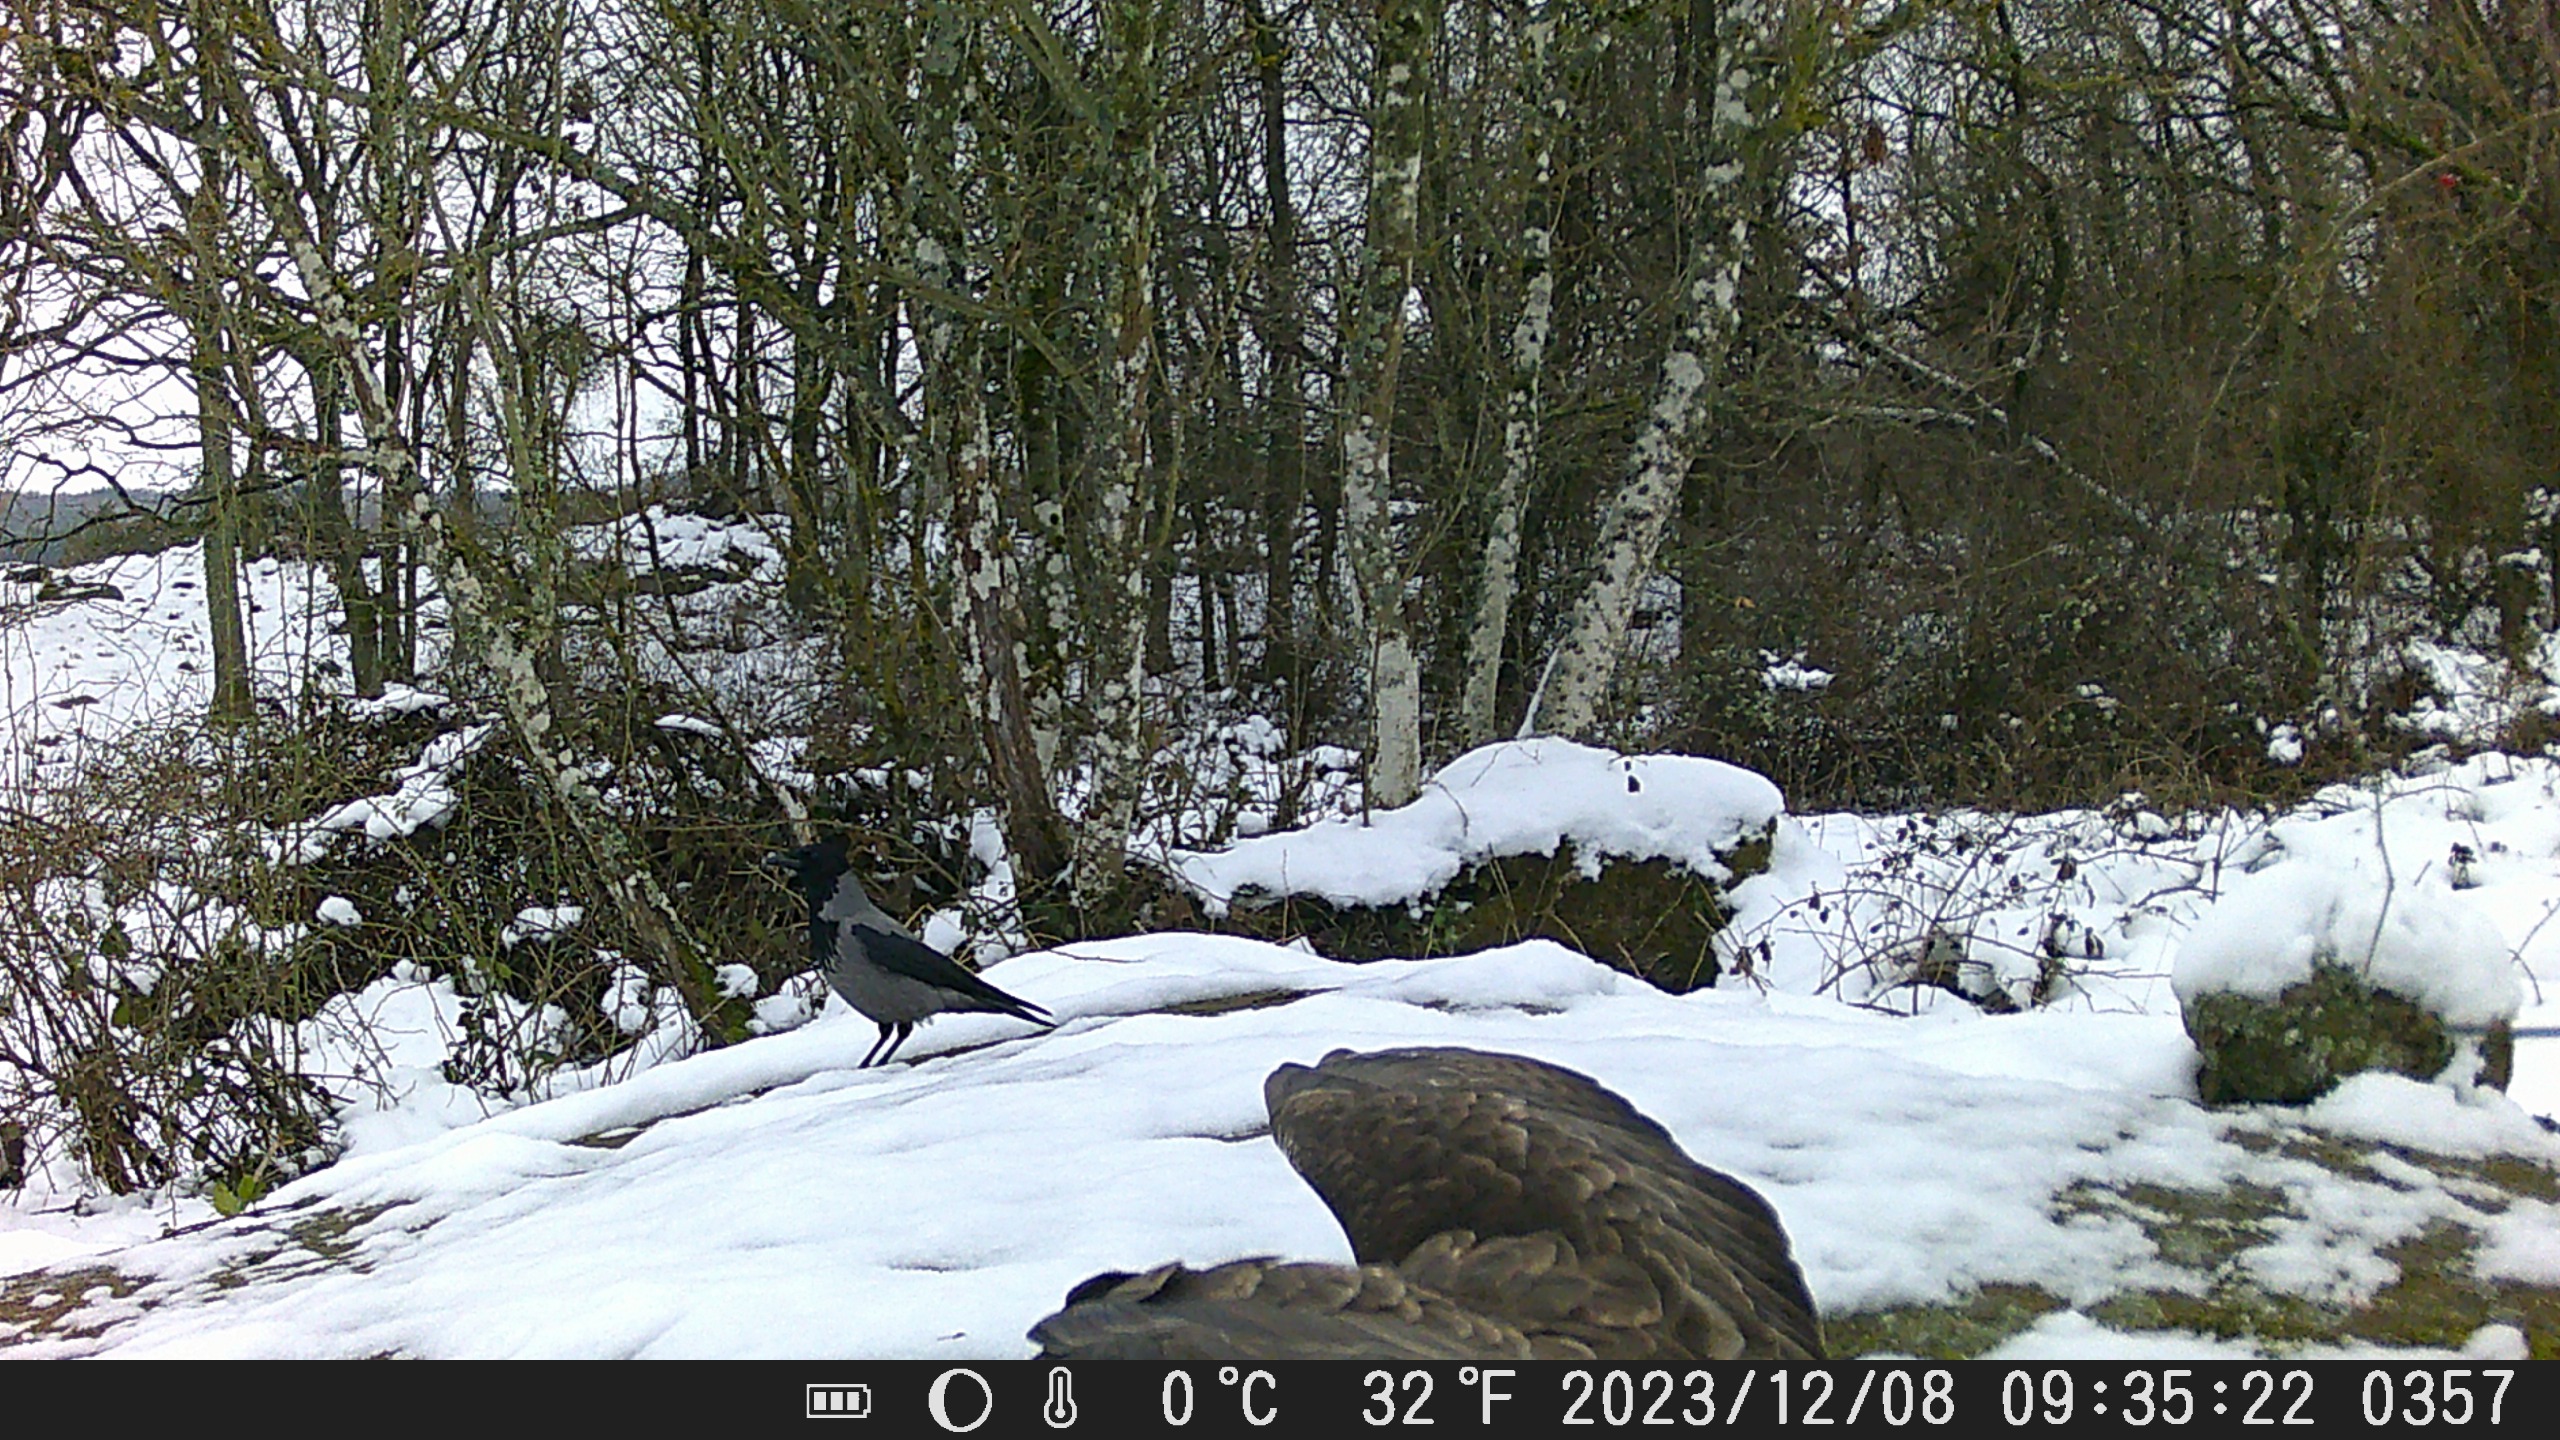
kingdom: Animalia
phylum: Chordata
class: Aves
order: Accipitriformes
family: Accipitridae
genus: Buteo
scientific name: Buteo buteo
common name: Musvåge
